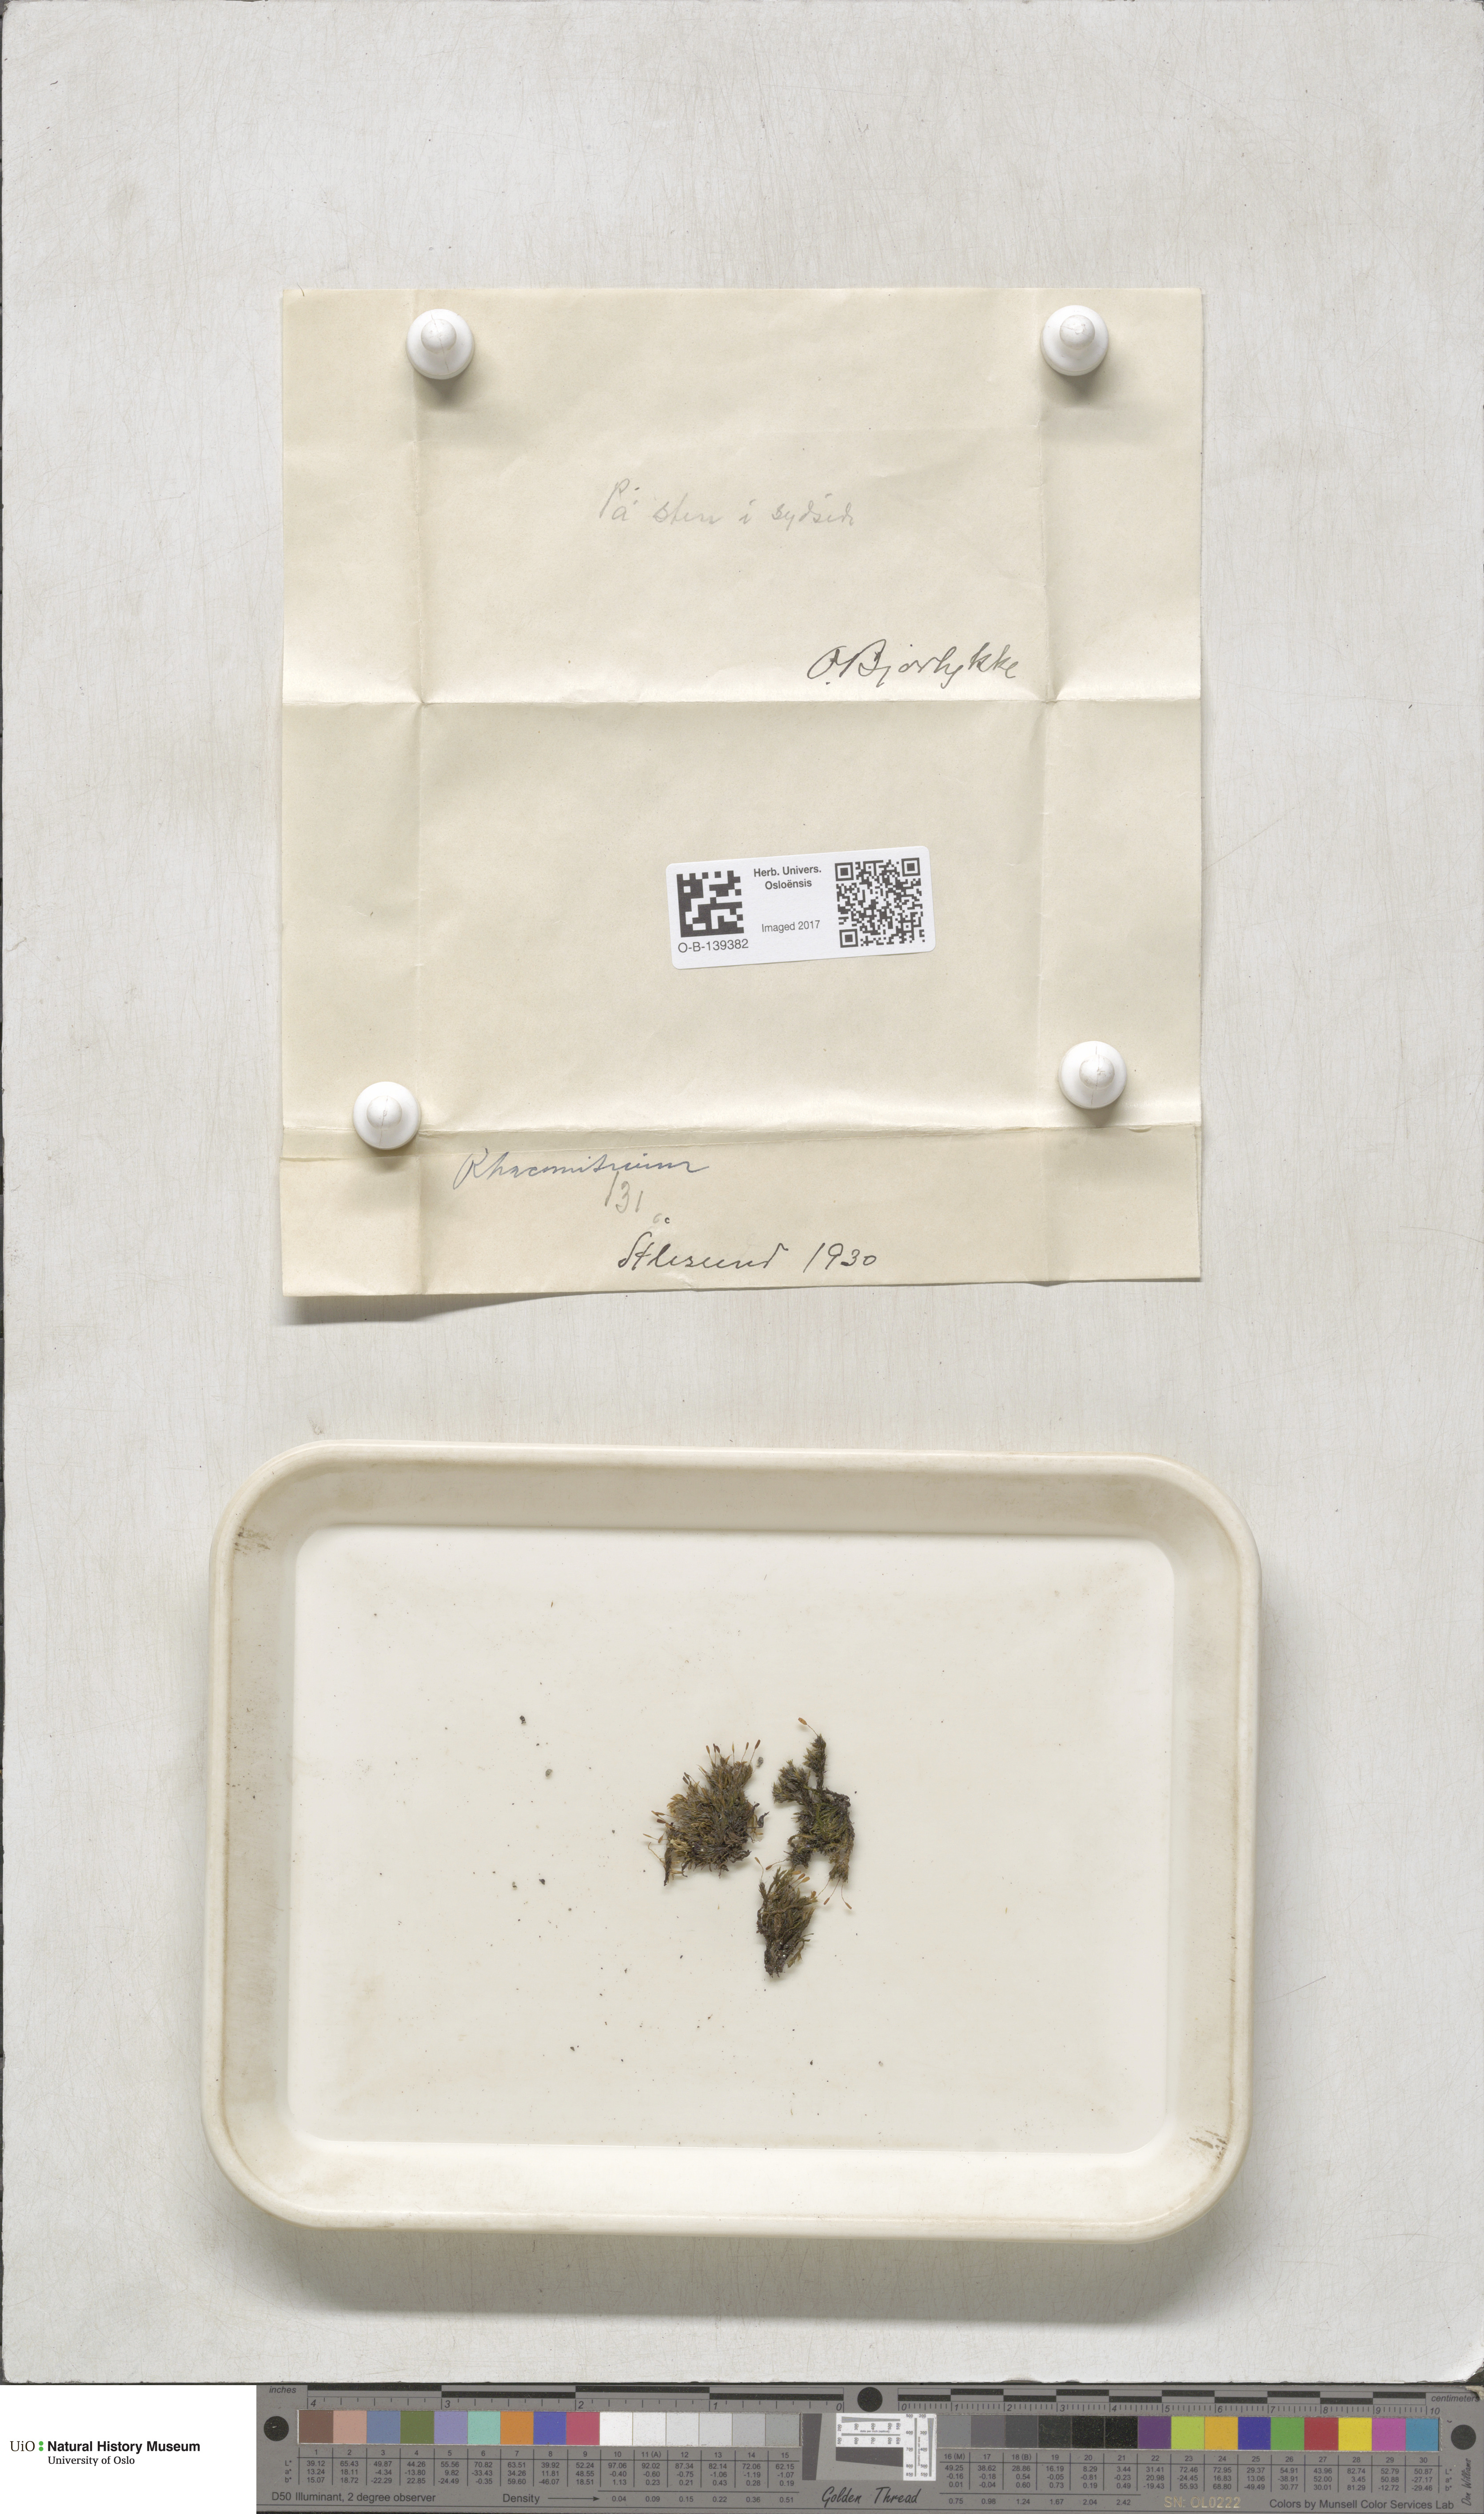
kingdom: Plantae
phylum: Bryophyta
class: Bryopsida
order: Grimmiales
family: Grimmiaceae
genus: Racomitrium
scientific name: Racomitrium
